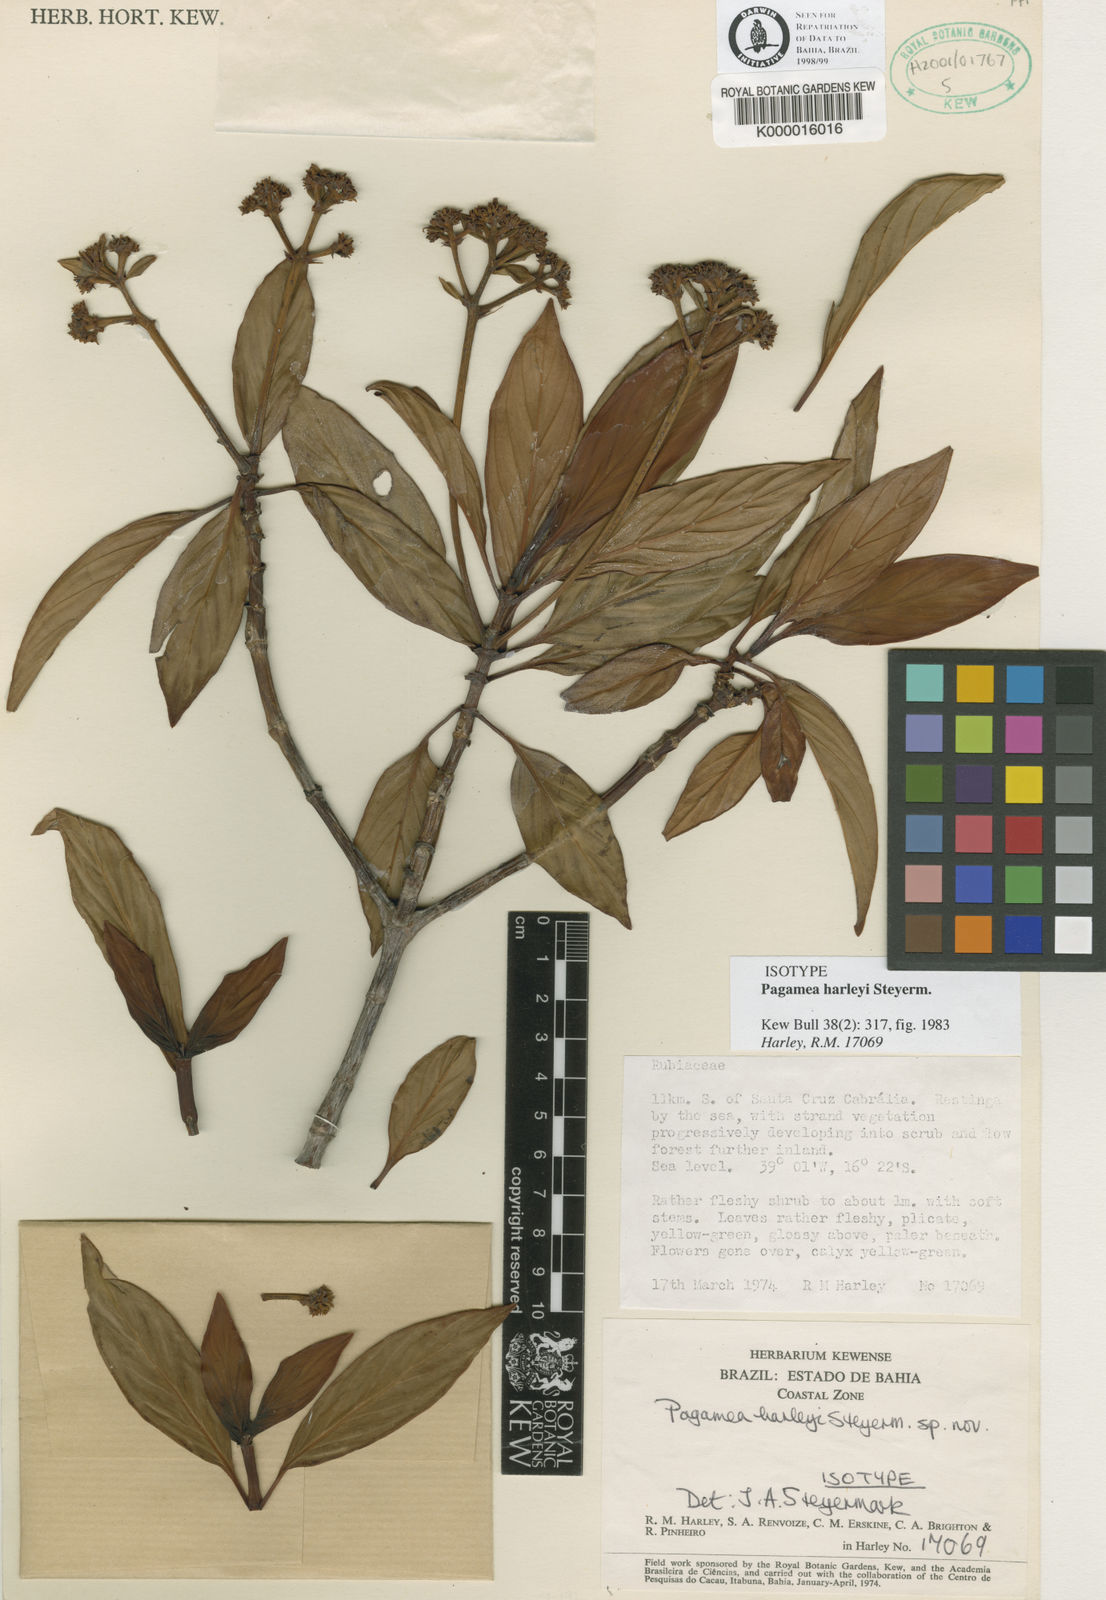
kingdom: Plantae
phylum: Tracheophyta
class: Magnoliopsida
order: Gentianales
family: Rubiaceae
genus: Pagamea
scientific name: Pagamea harleyi
